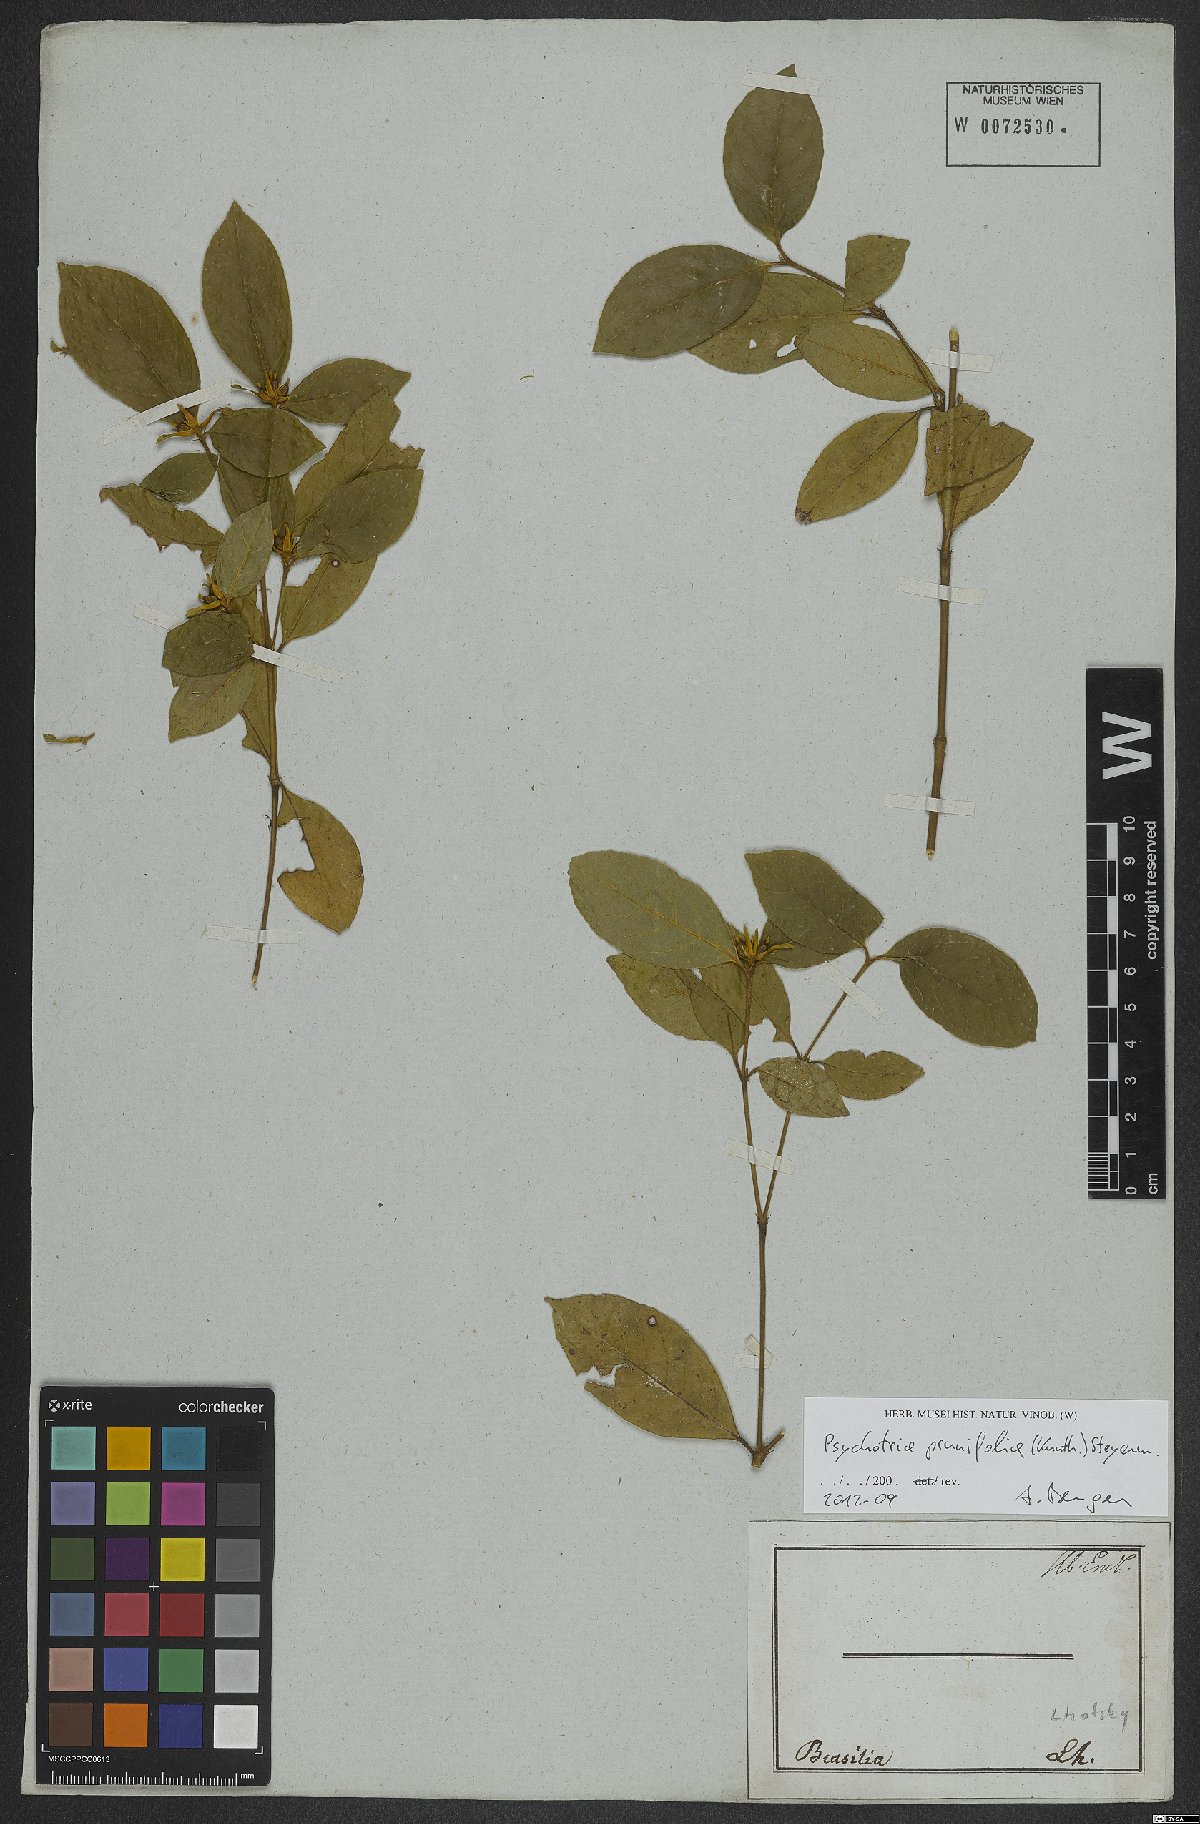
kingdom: Plantae
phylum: Tracheophyta
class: Magnoliopsida
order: Gentianales
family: Rubiaceae
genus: Palicourea
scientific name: Palicourea prunifolia
